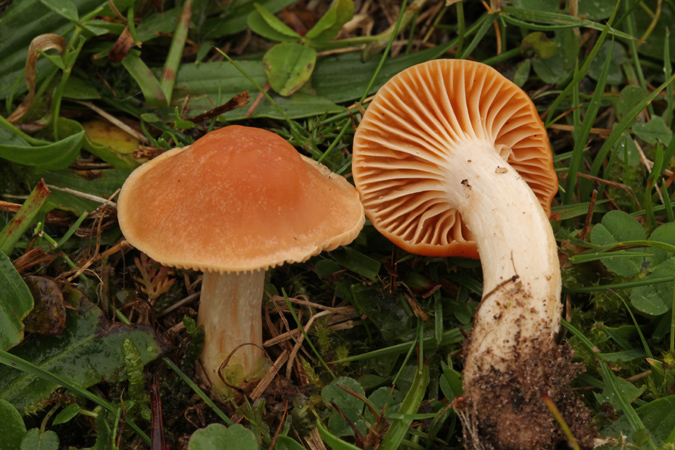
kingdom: Fungi
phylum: Basidiomycota
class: Agaricomycetes
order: Agaricales
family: Hygrophoraceae
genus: Cuphophyllus
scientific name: Cuphophyllus pratensis
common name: eng-vokshat
